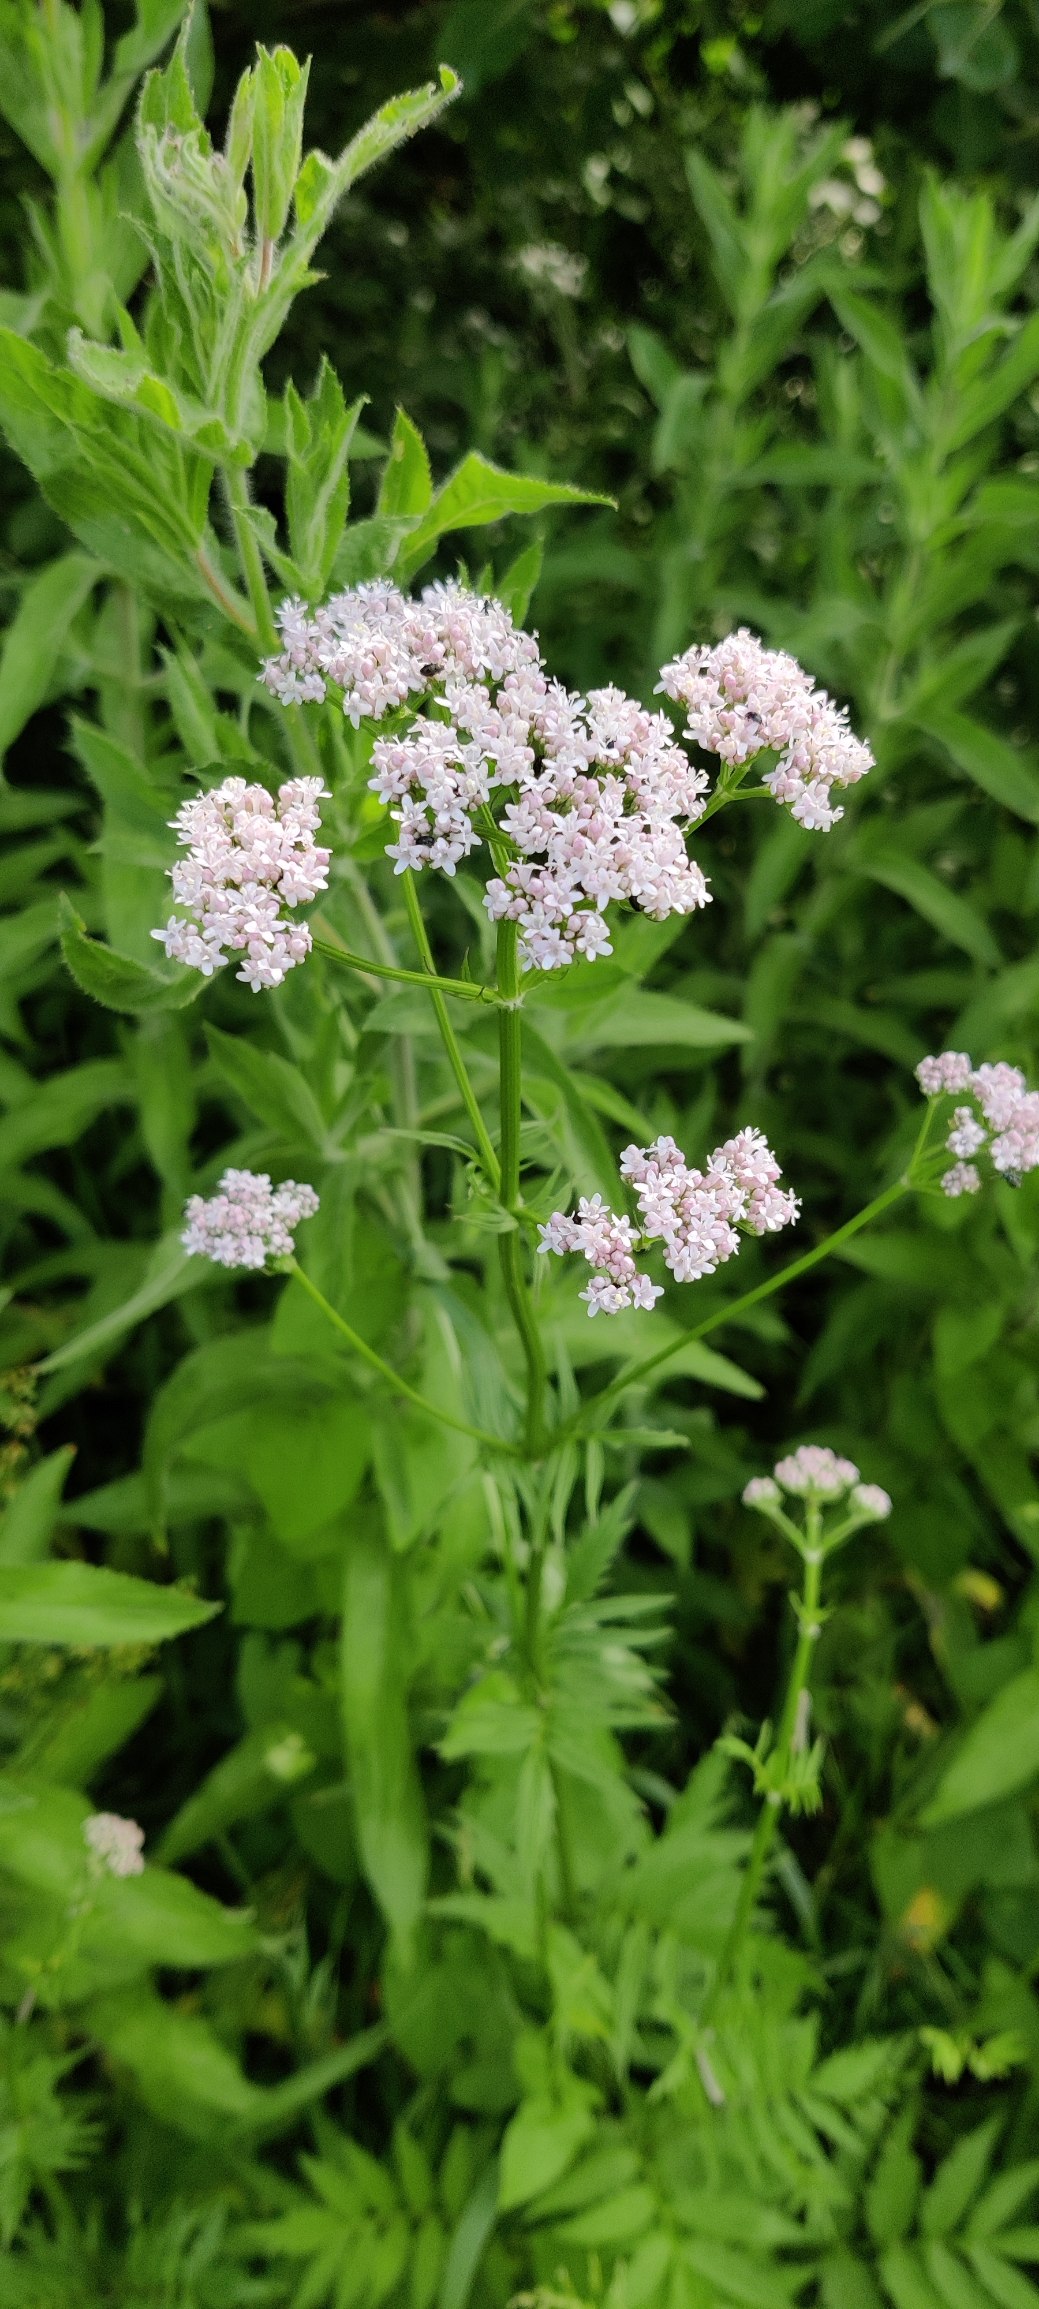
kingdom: Plantae
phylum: Tracheophyta
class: Magnoliopsida
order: Dipsacales
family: Caprifoliaceae
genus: Valeriana
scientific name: Valeriana sambucifolia
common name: Hyldebladet baldrian
